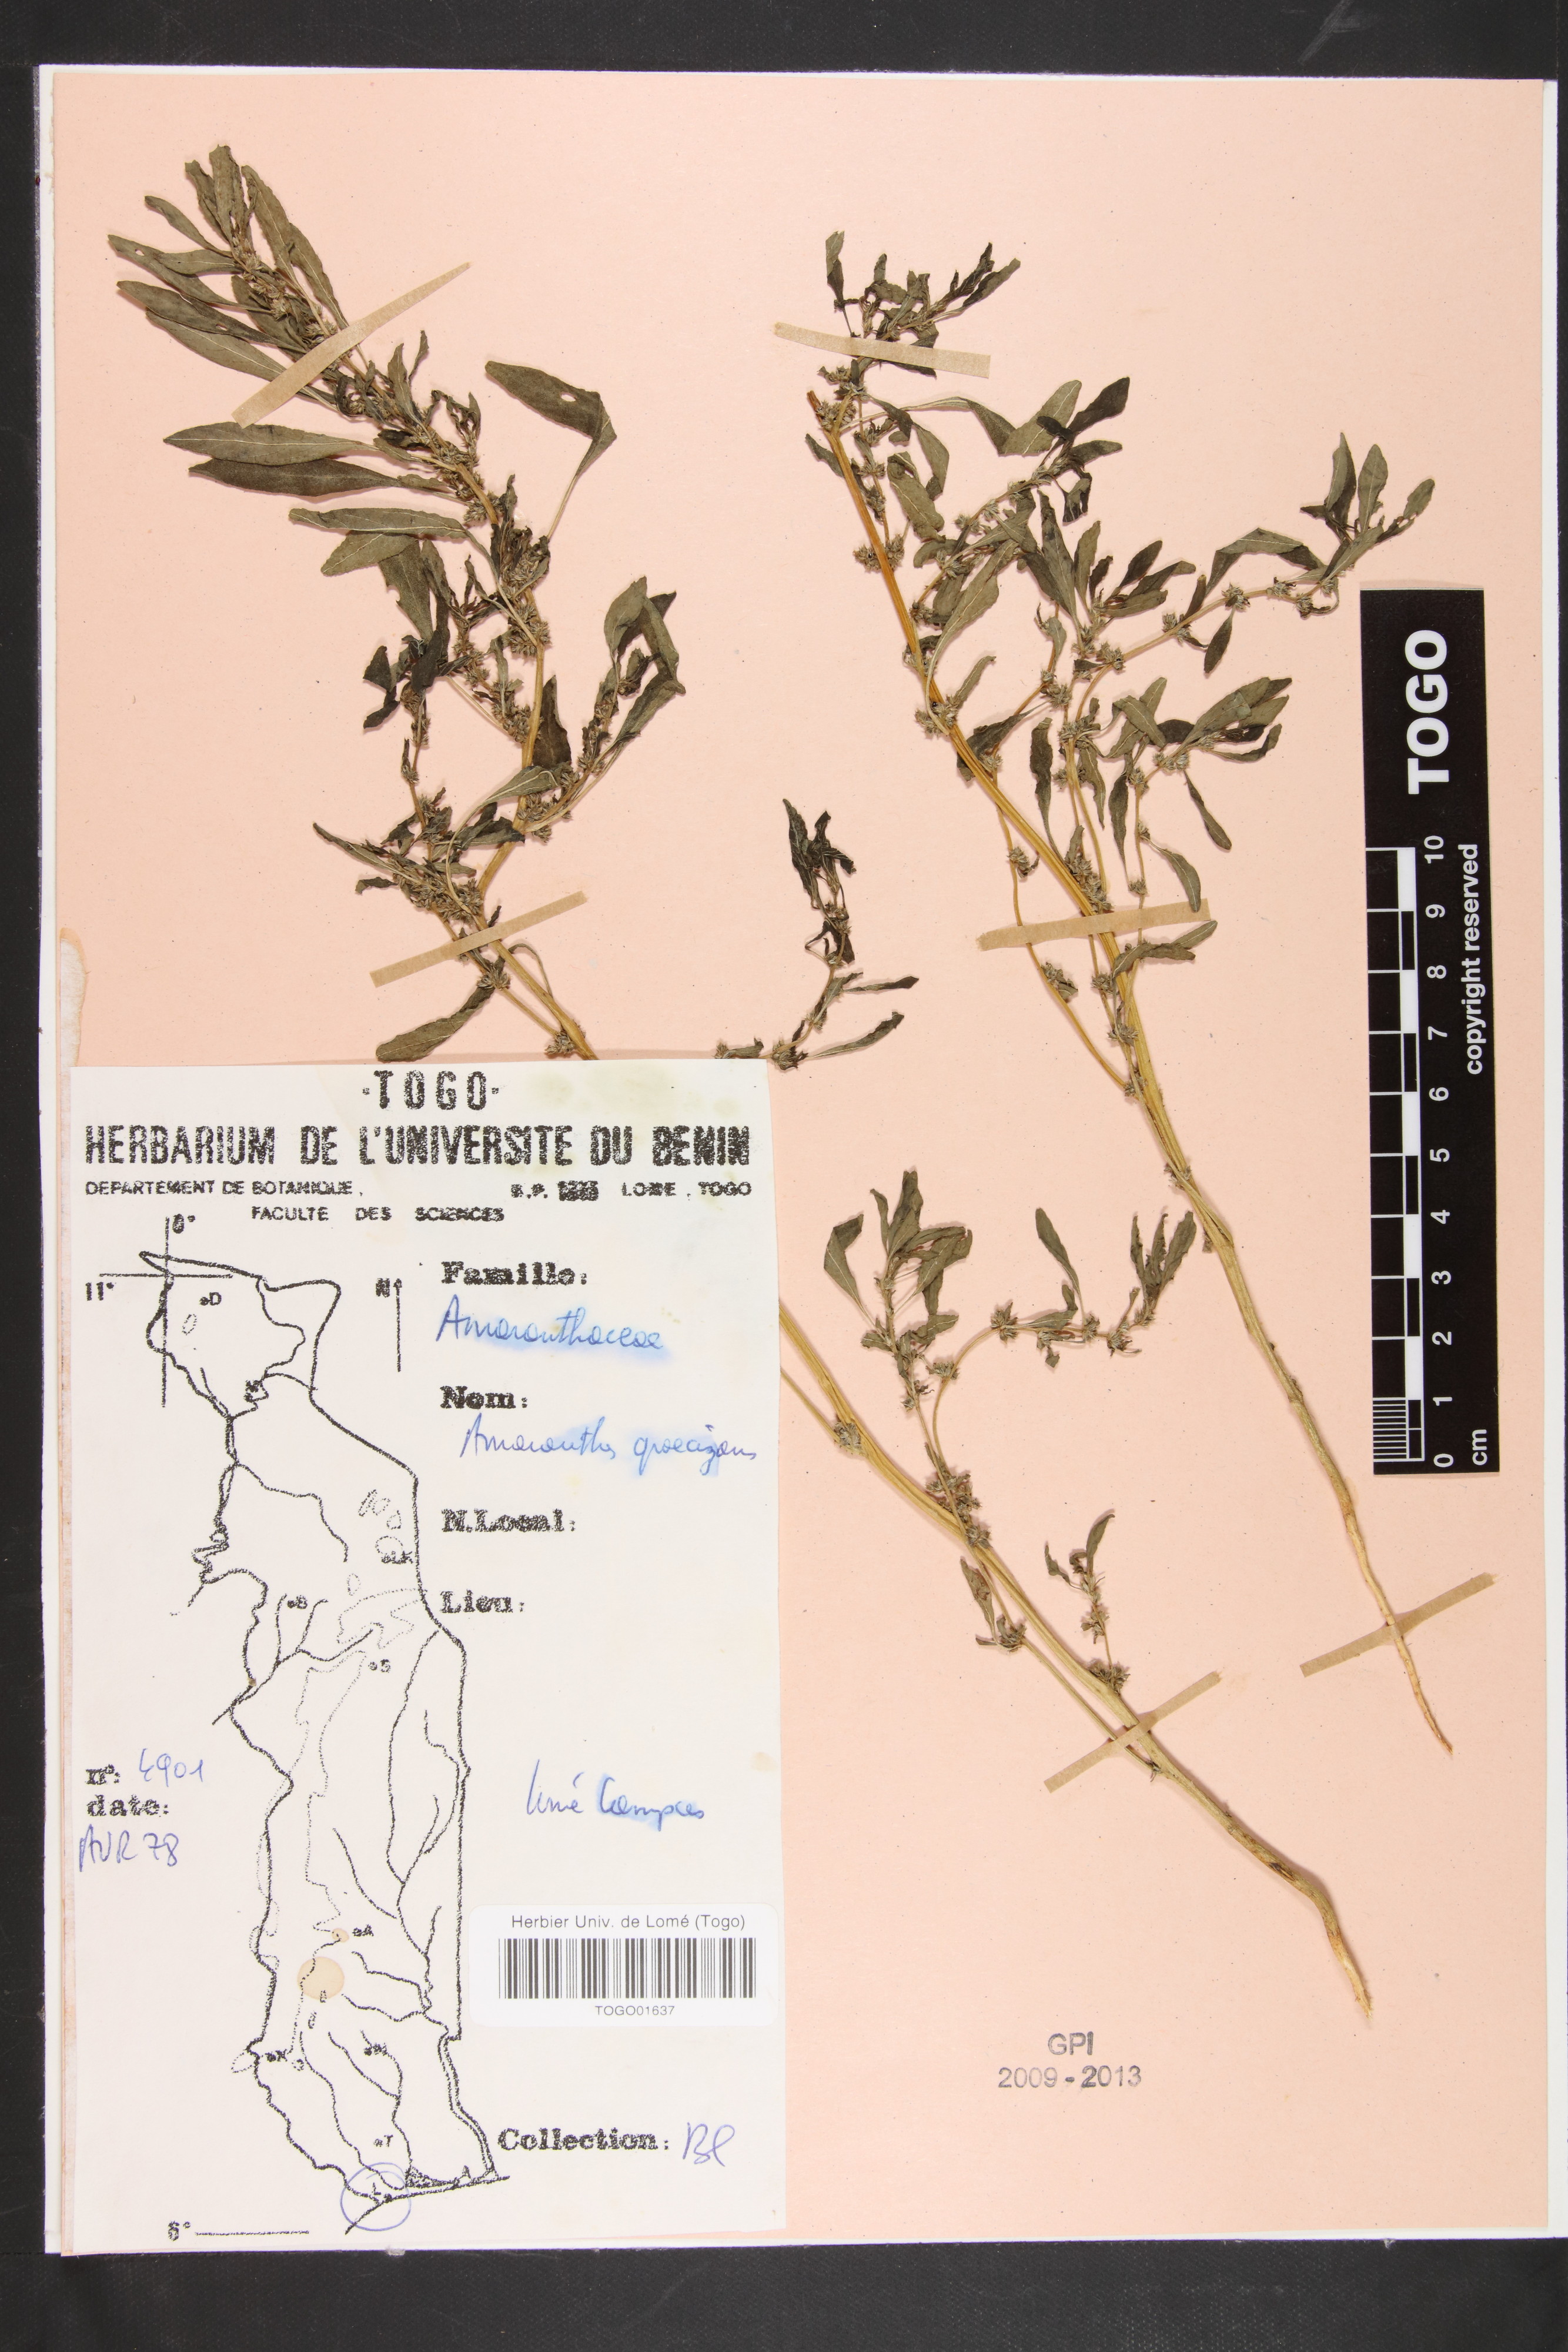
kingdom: Plantae
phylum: Tracheophyta
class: Magnoliopsida
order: Caryophyllales
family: Amaranthaceae
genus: Amaranthus
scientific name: Amaranthus graecizans
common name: Mediterranean amaranth
